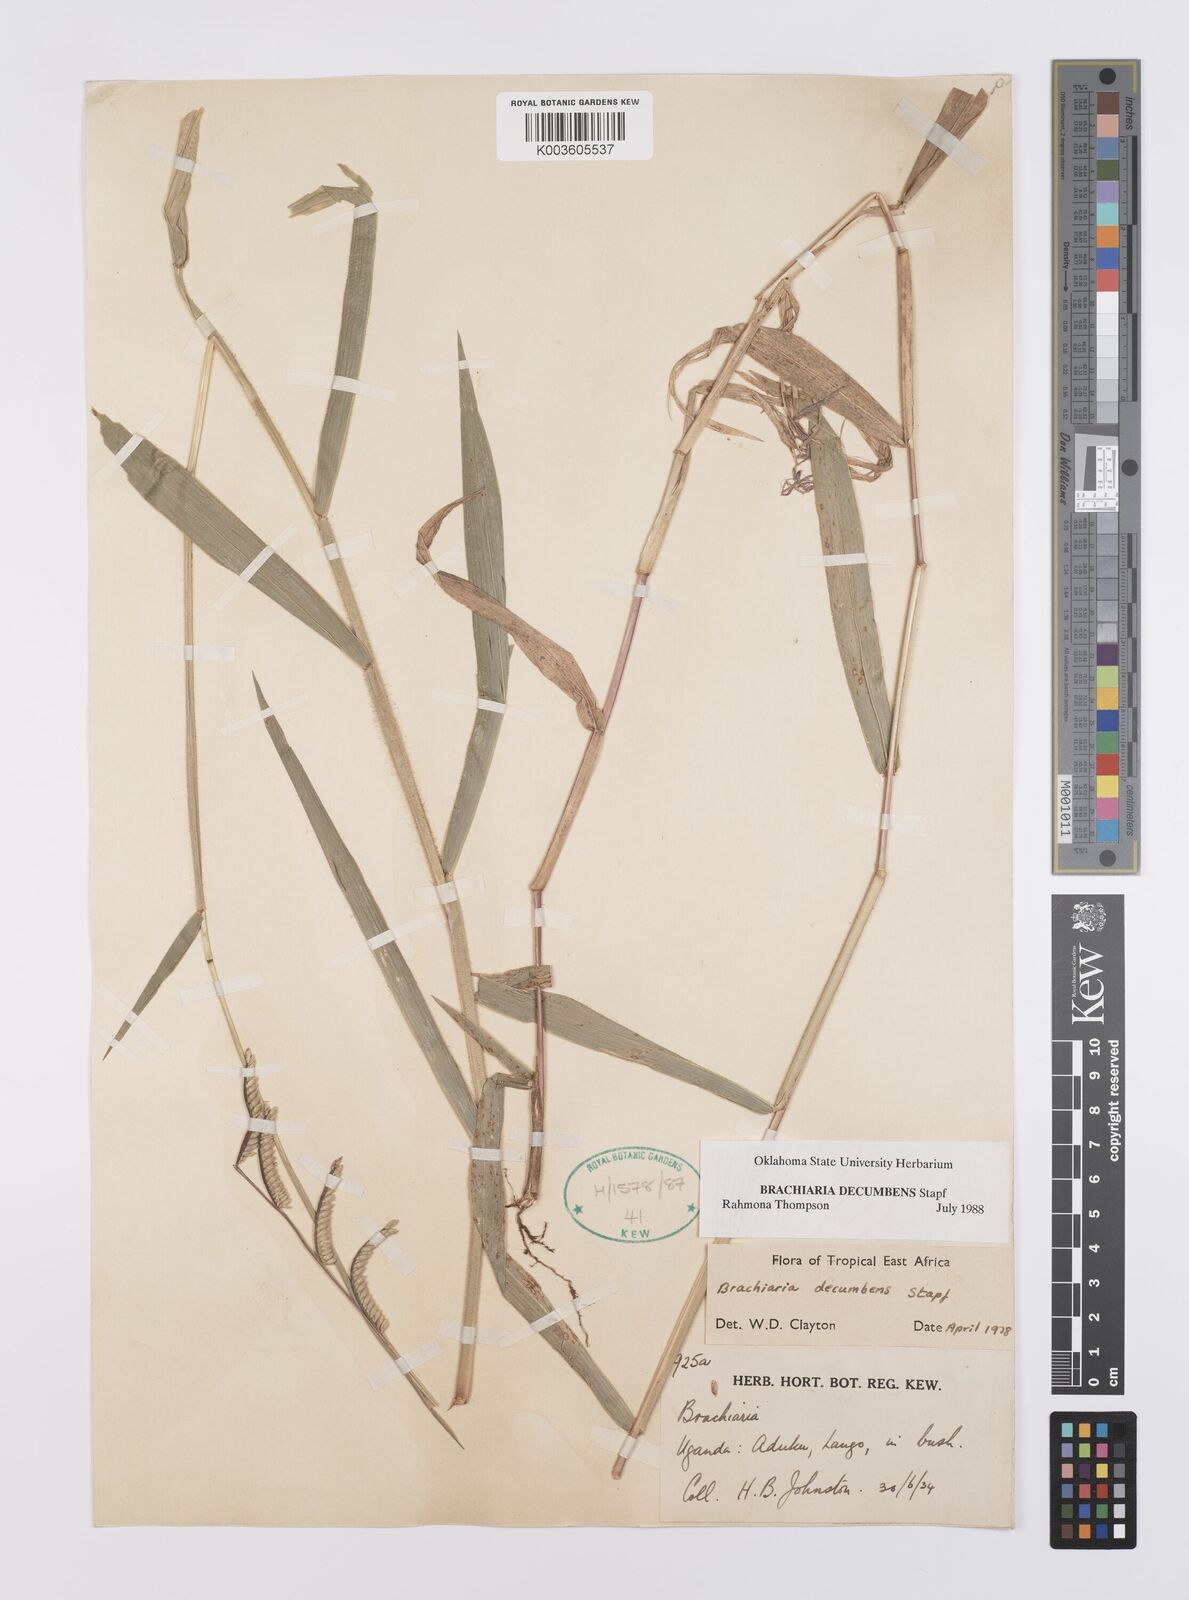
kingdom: Plantae
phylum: Tracheophyta
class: Liliopsida
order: Poales
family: Poaceae
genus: Urochloa
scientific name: Urochloa eminii
